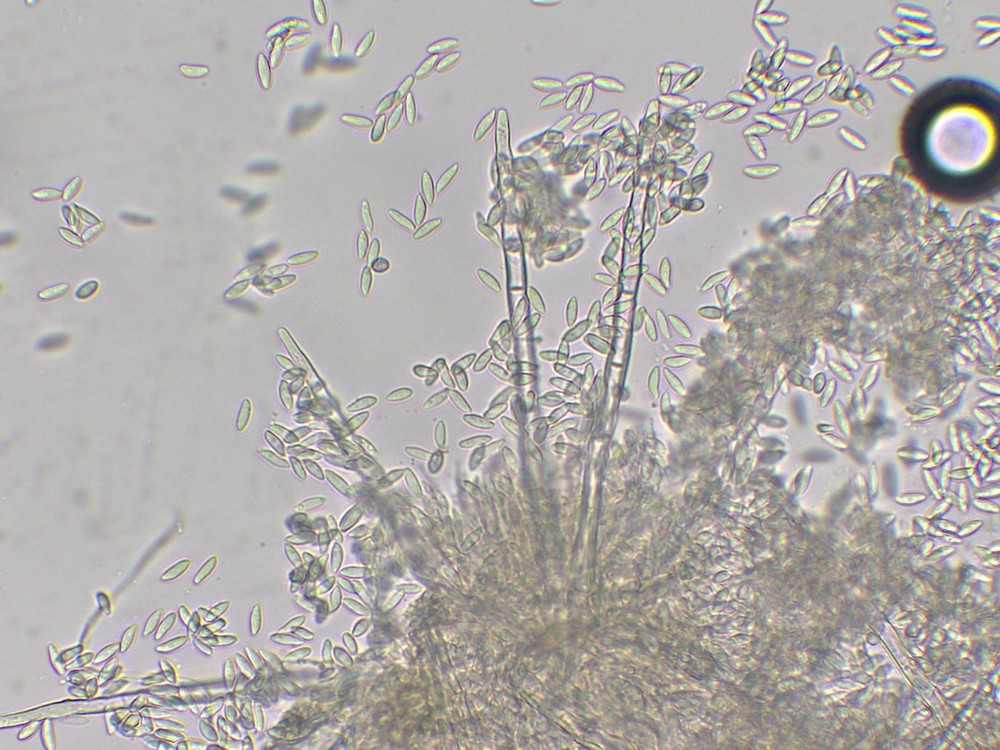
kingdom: Fungi
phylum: Ascomycota
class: Sordariomycetes
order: Hypocreales
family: Nectriaceae
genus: Pseudonectria
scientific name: Pseudonectria buxi
